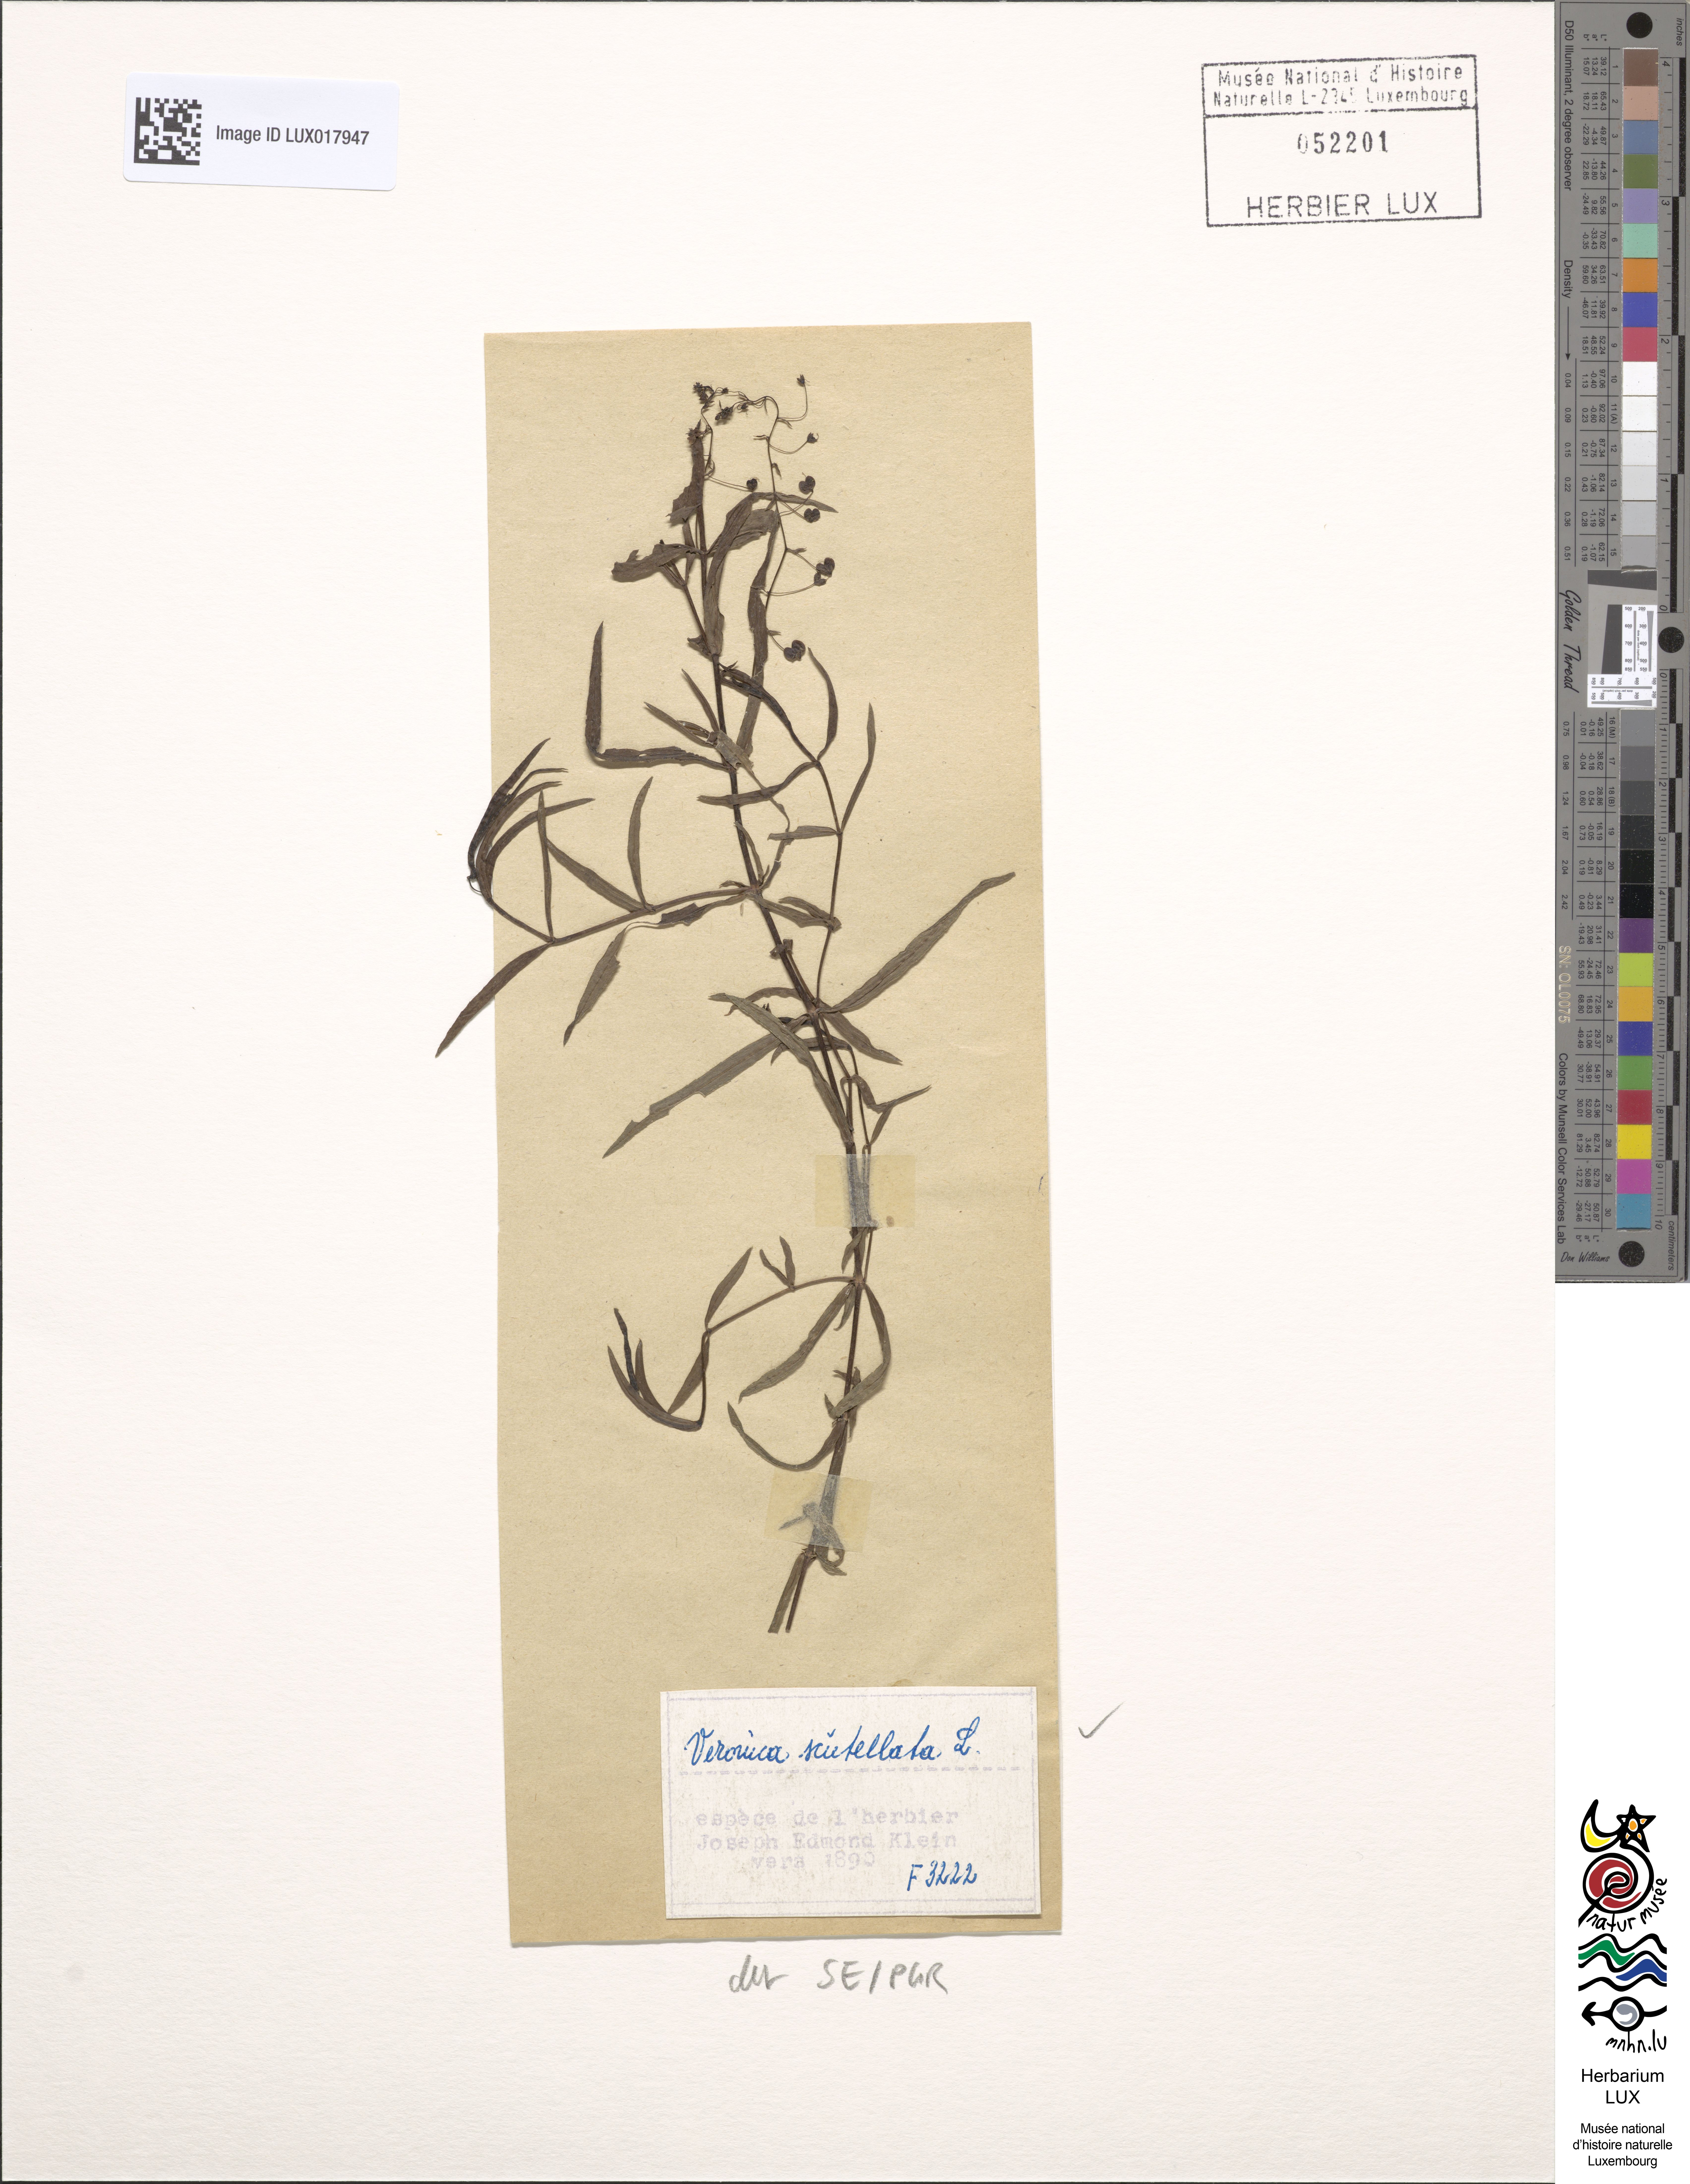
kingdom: Plantae
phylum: Tracheophyta
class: Magnoliopsida
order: Lamiales
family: Plantaginaceae
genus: Veronica
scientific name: Veronica scutellata
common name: Marsh speedwell
